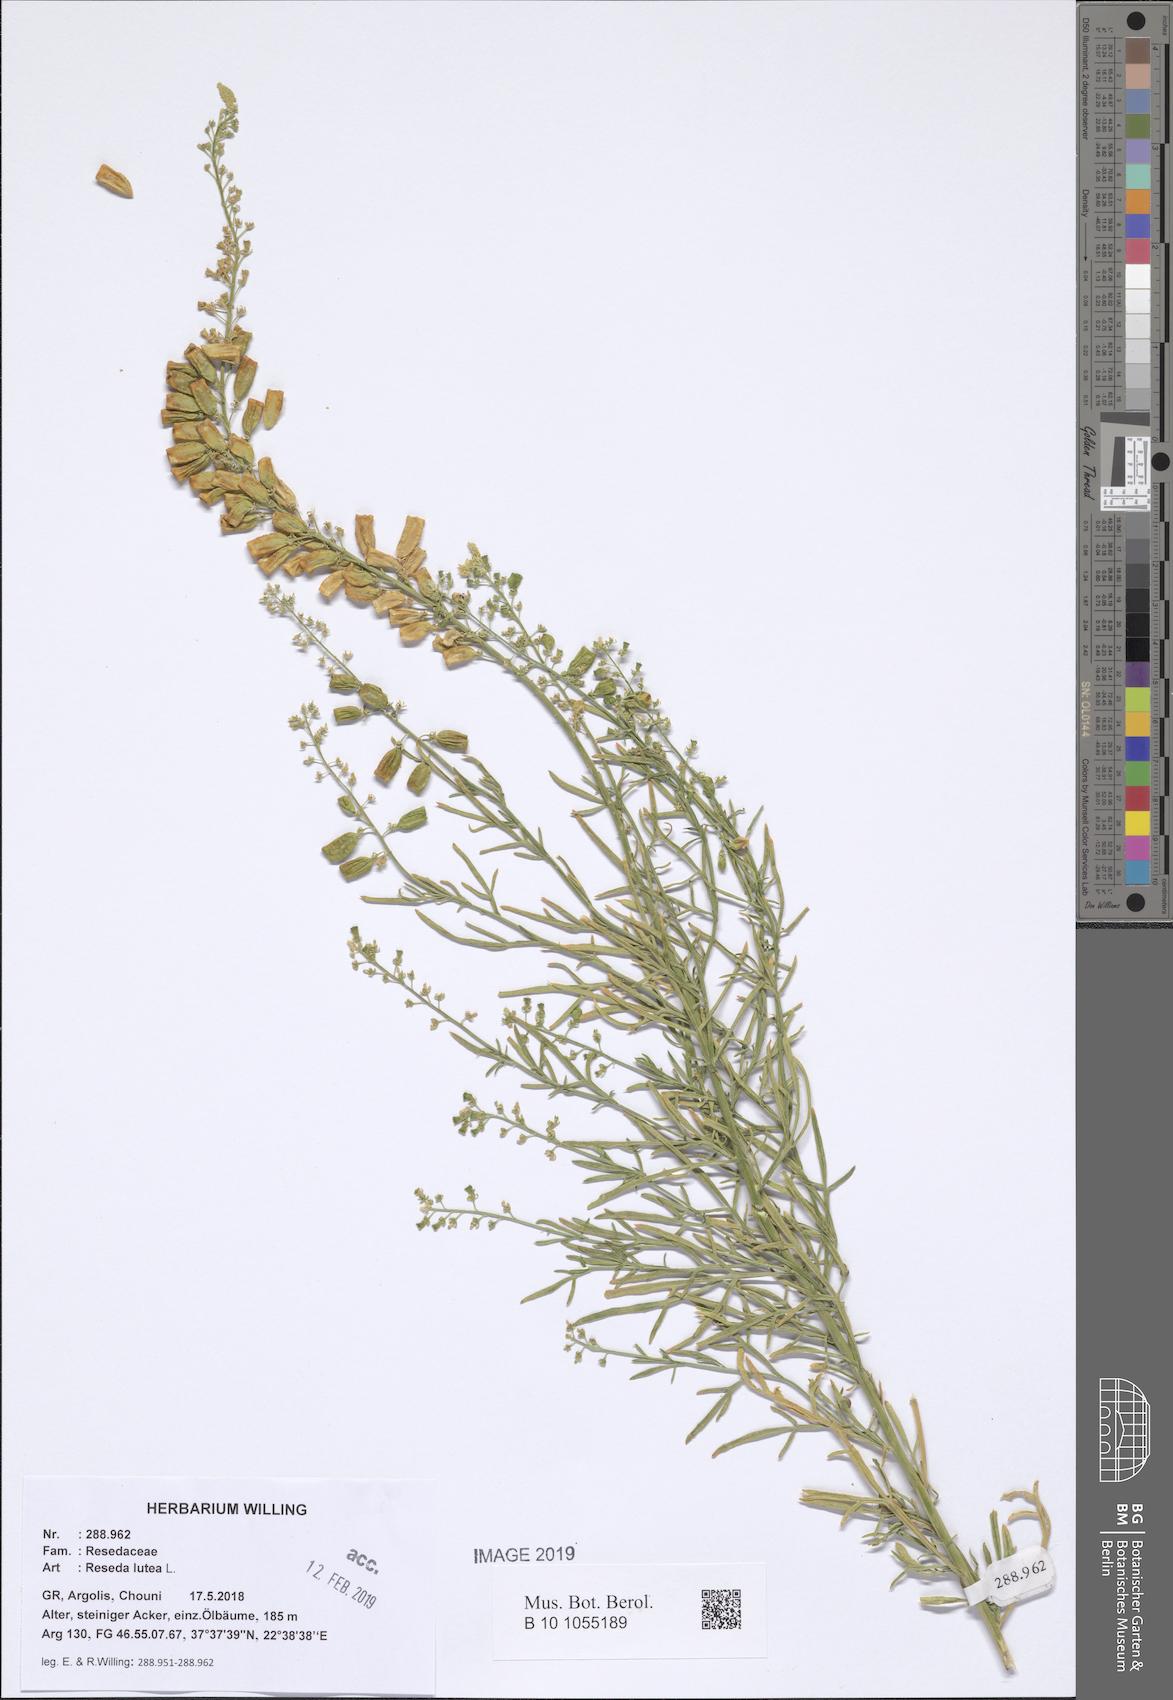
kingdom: Plantae
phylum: Tracheophyta
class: Magnoliopsida
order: Brassicales
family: Resedaceae
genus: Reseda
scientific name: Reseda lutea
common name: Wild mignonette
